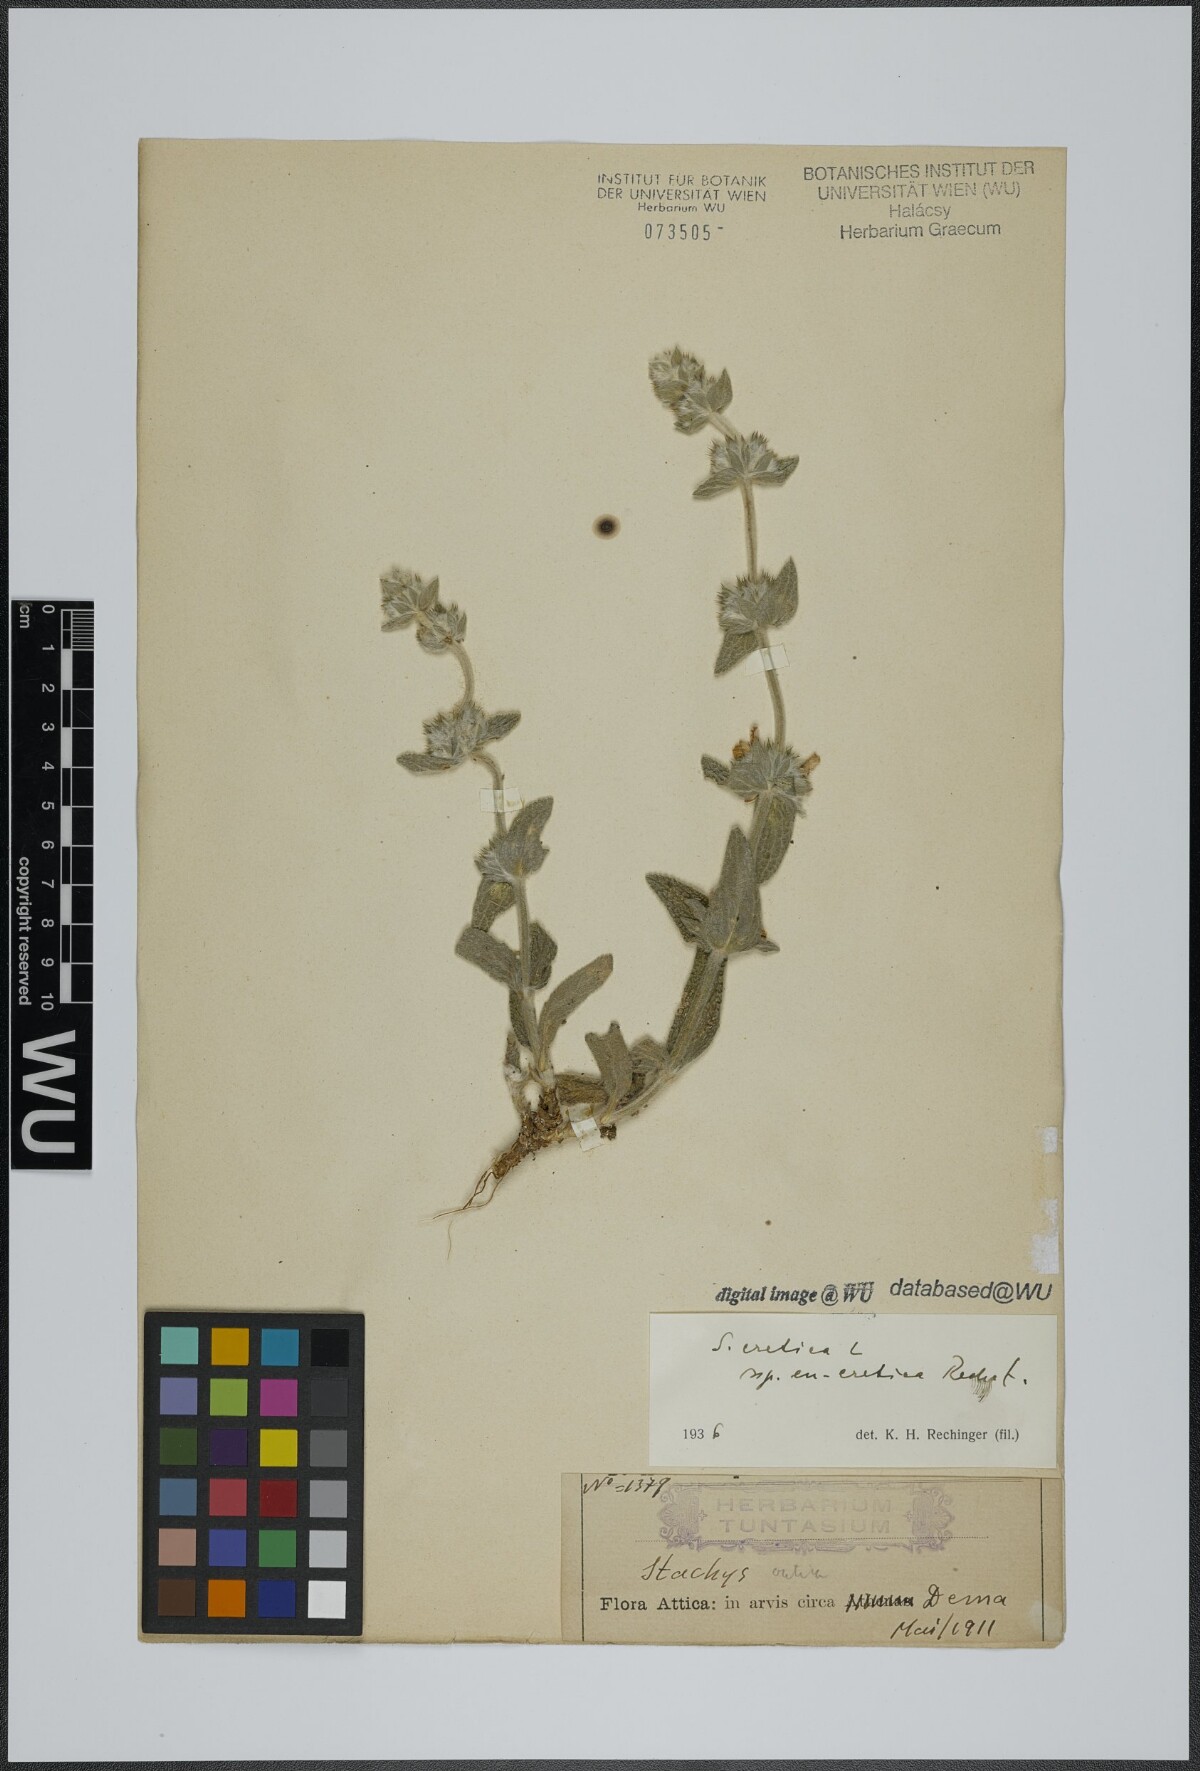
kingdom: Plantae
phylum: Tracheophyta
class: Magnoliopsida
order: Lamiales
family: Lamiaceae
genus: Stachys
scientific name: Stachys cretica
